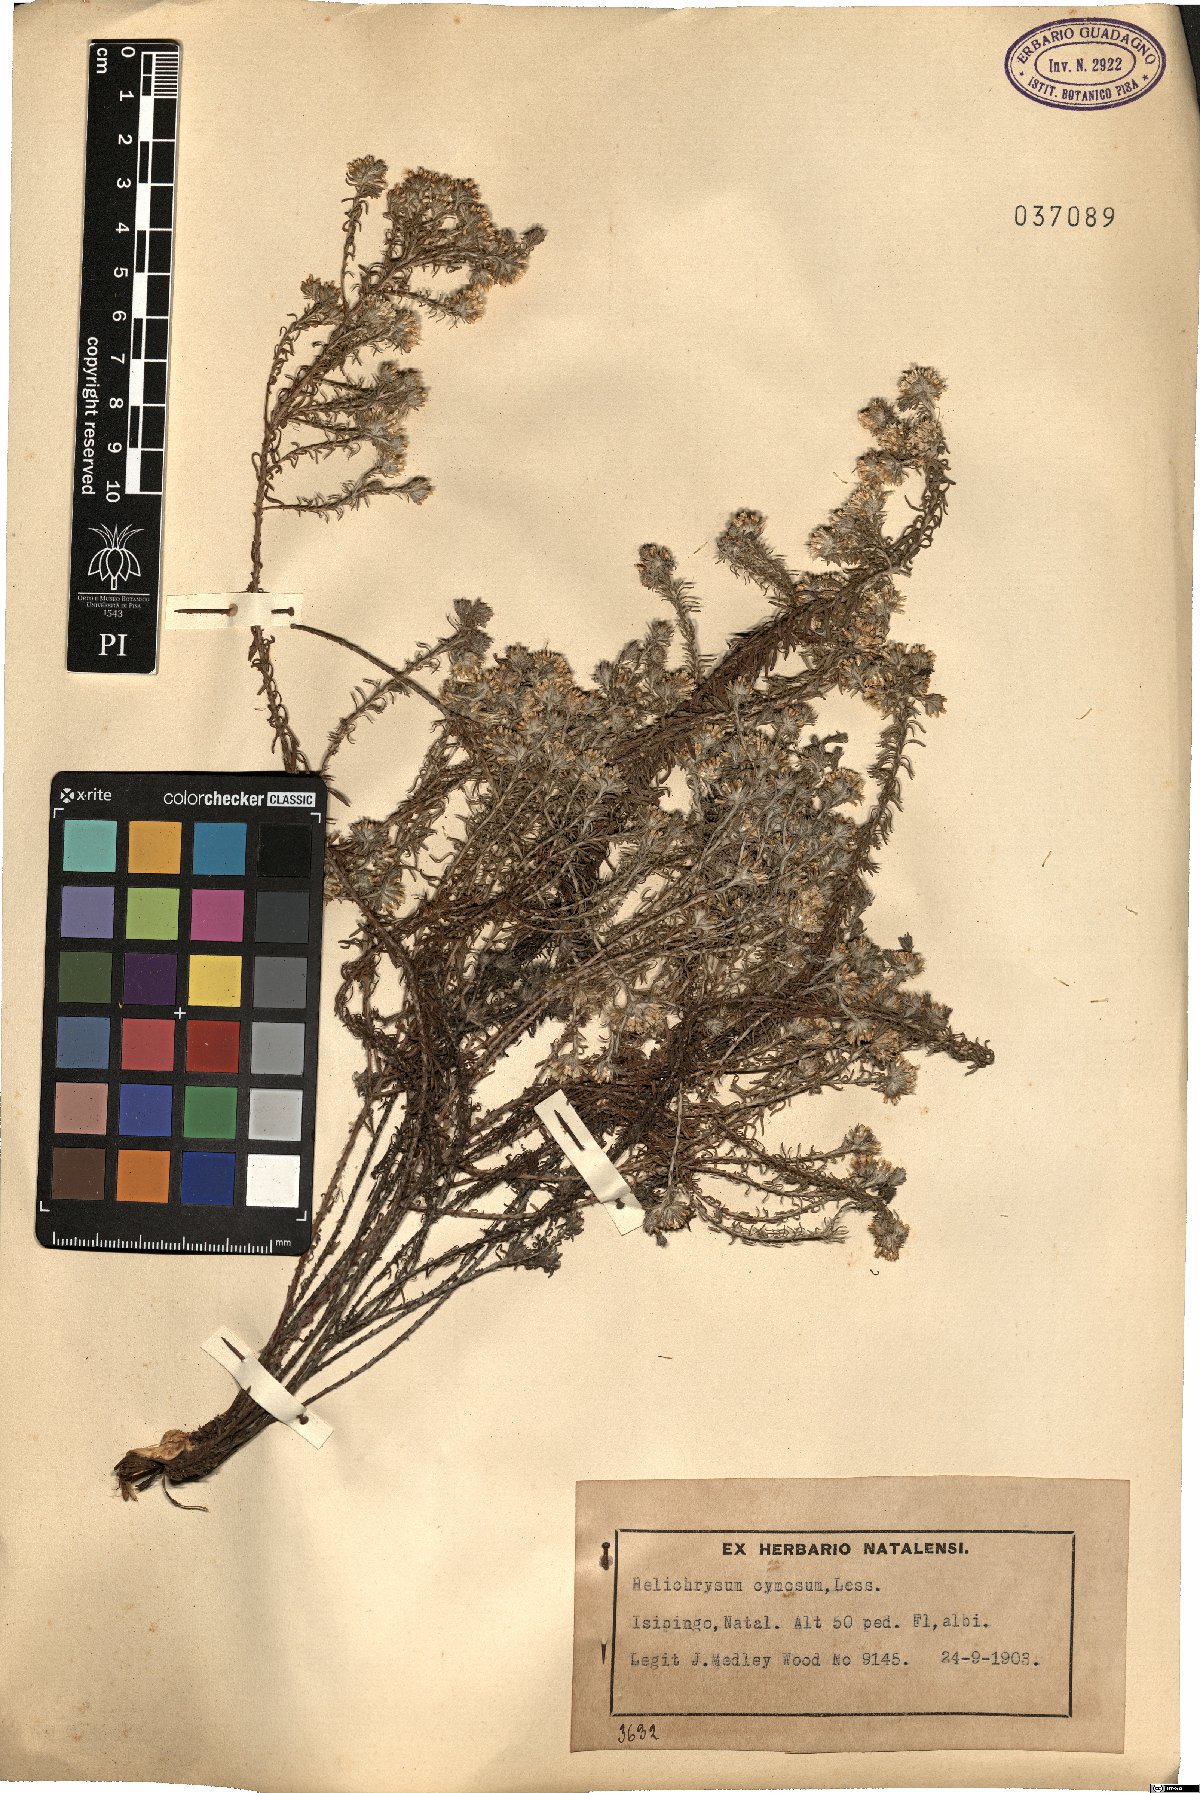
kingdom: Plantae
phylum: Tracheophyta
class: Magnoliopsida
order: Asterales
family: Asteraceae
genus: Helichrysum
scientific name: Helichrysum cymosum
